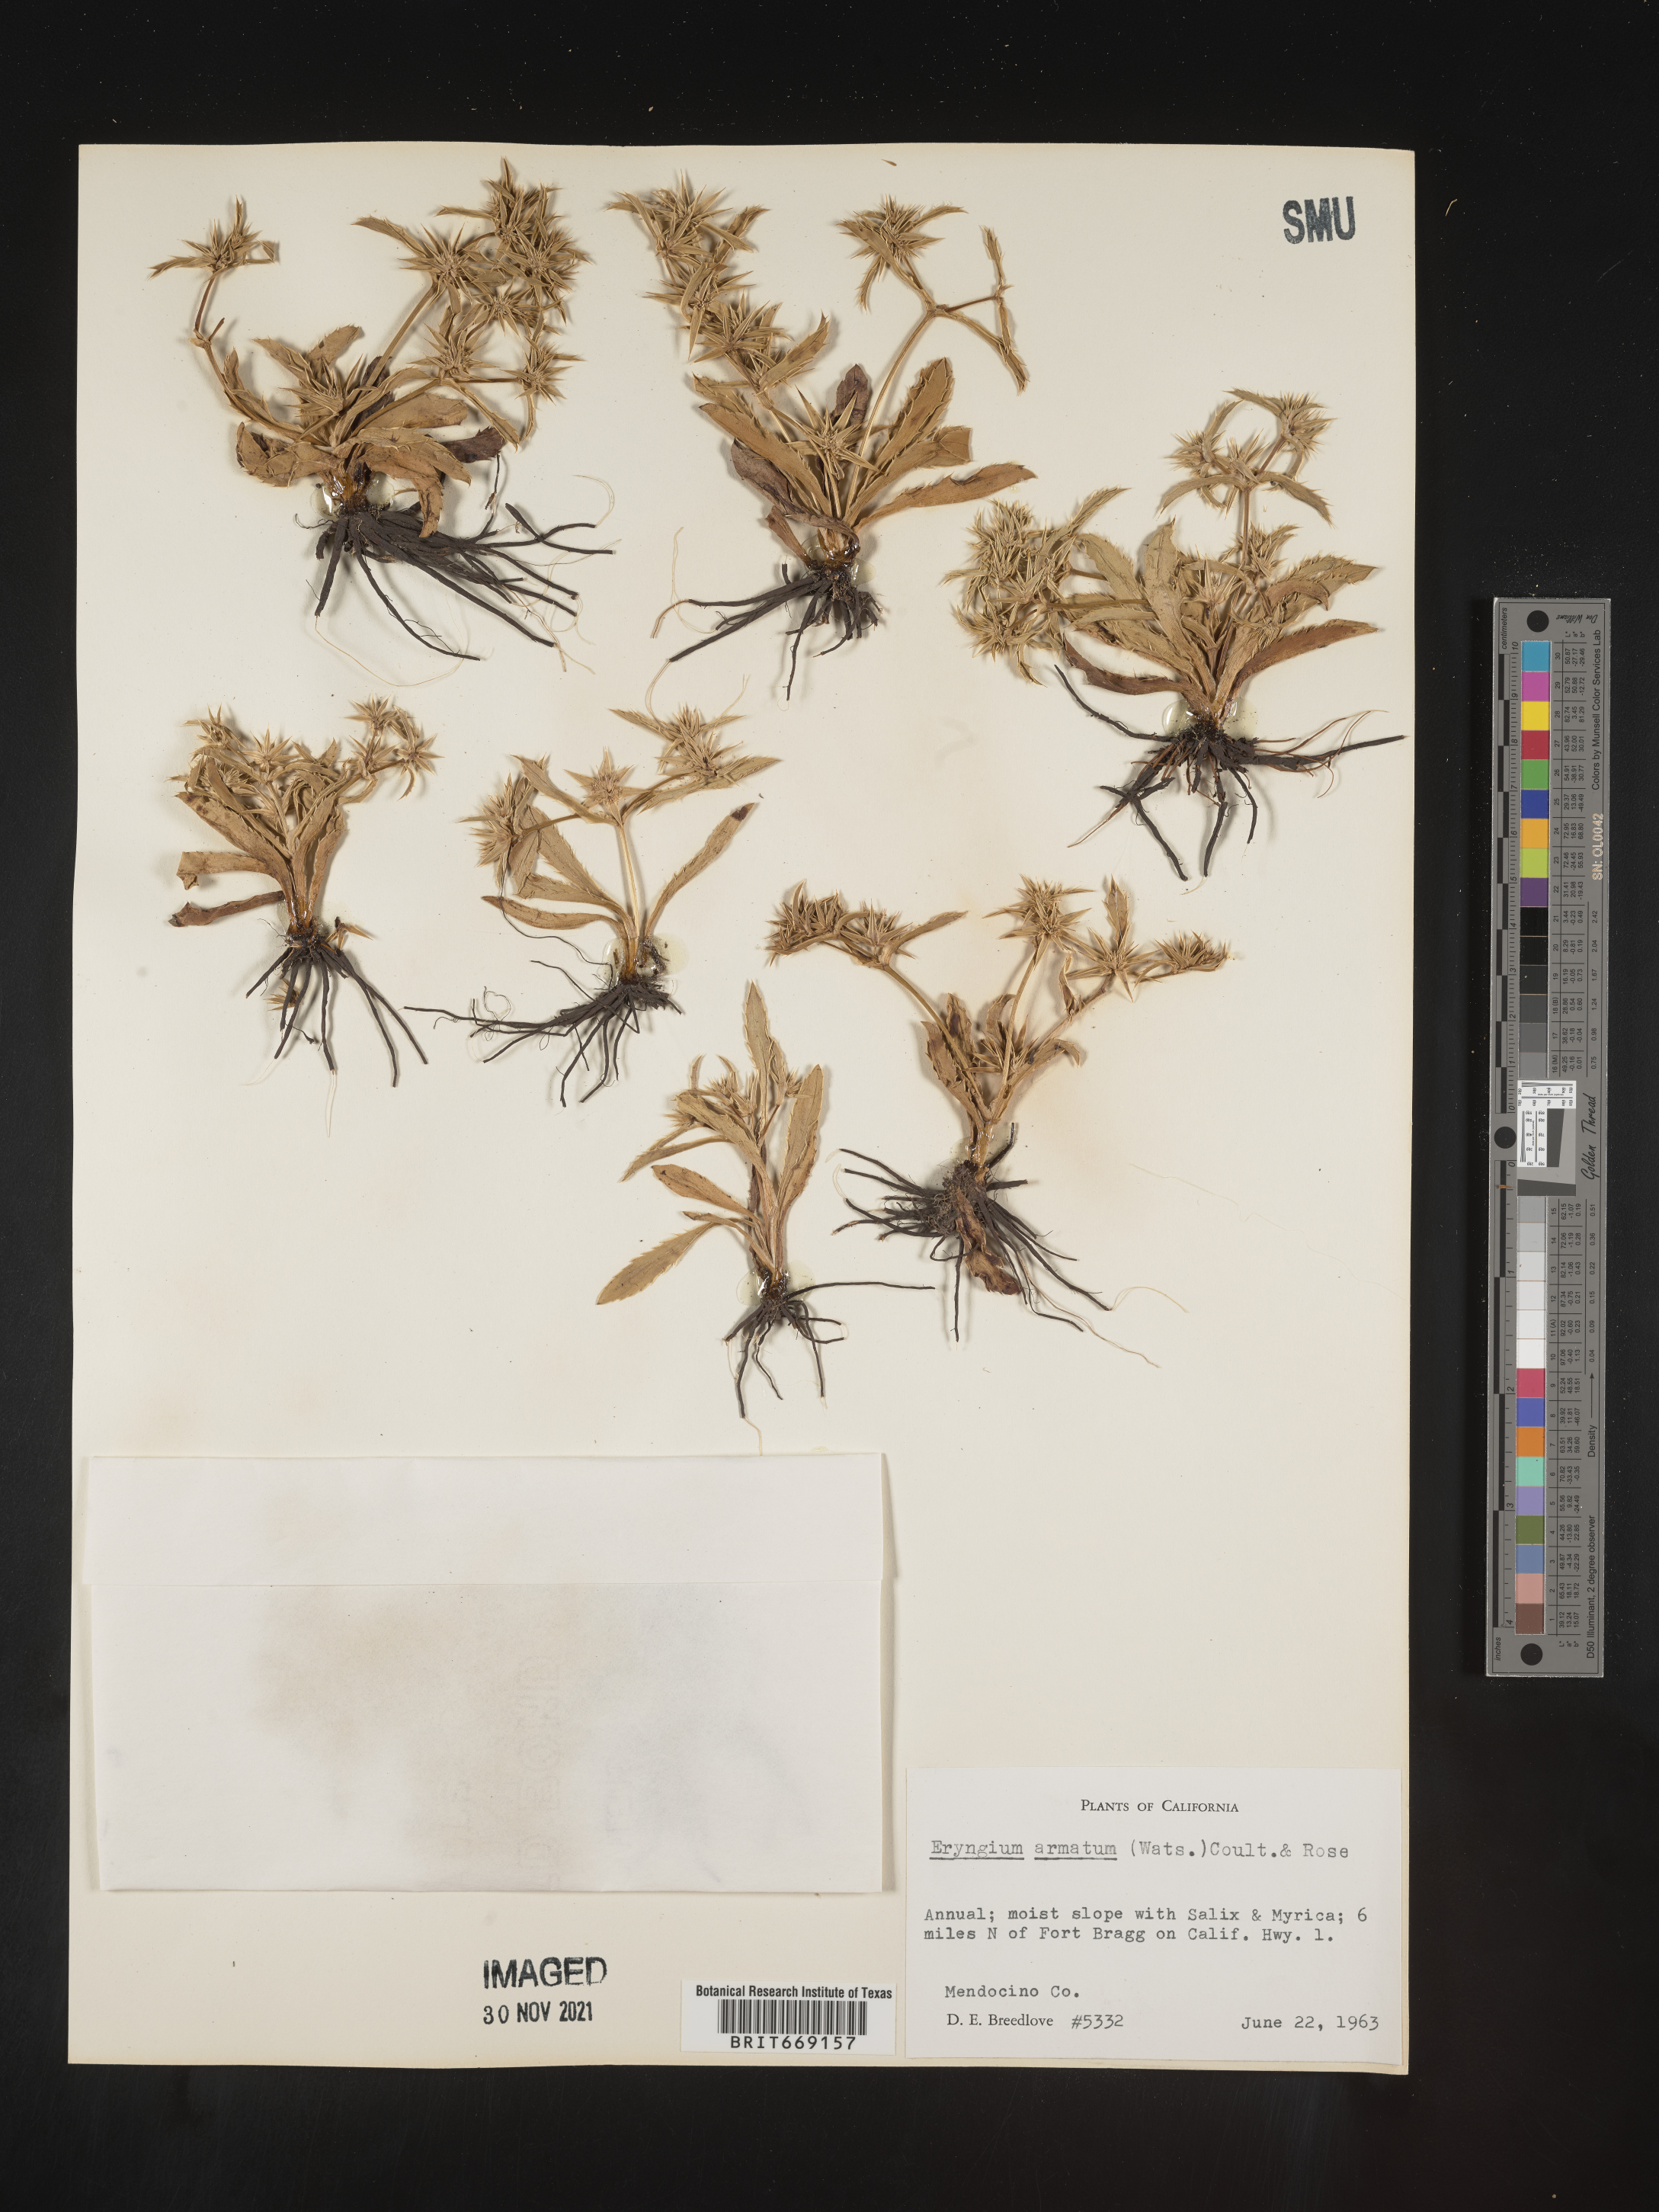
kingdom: Plantae
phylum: Tracheophyta
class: Magnoliopsida
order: Apiales
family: Apiaceae
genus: Eryngium
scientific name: Eryngium armatum
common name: Coyote thistle
